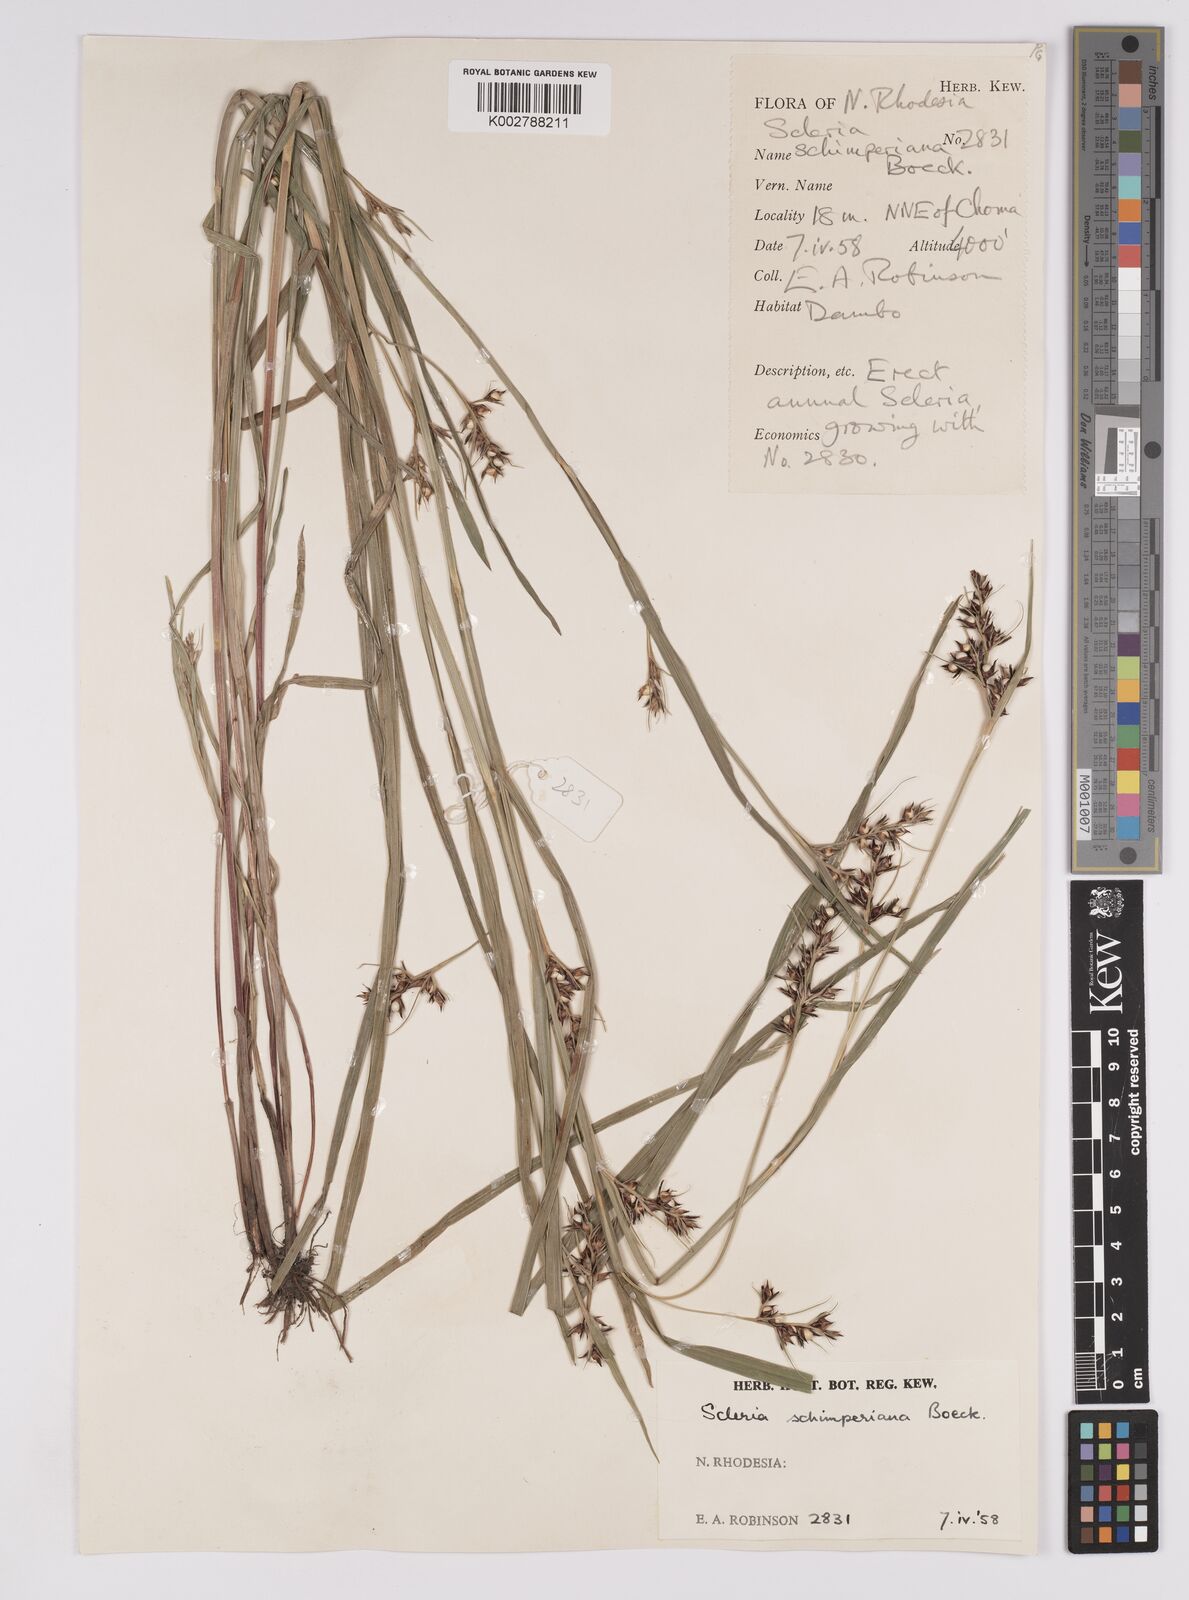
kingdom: Plantae
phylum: Tracheophyta
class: Liliopsida
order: Poales
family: Cyperaceae
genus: Scleria
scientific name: Scleria schimperiana
